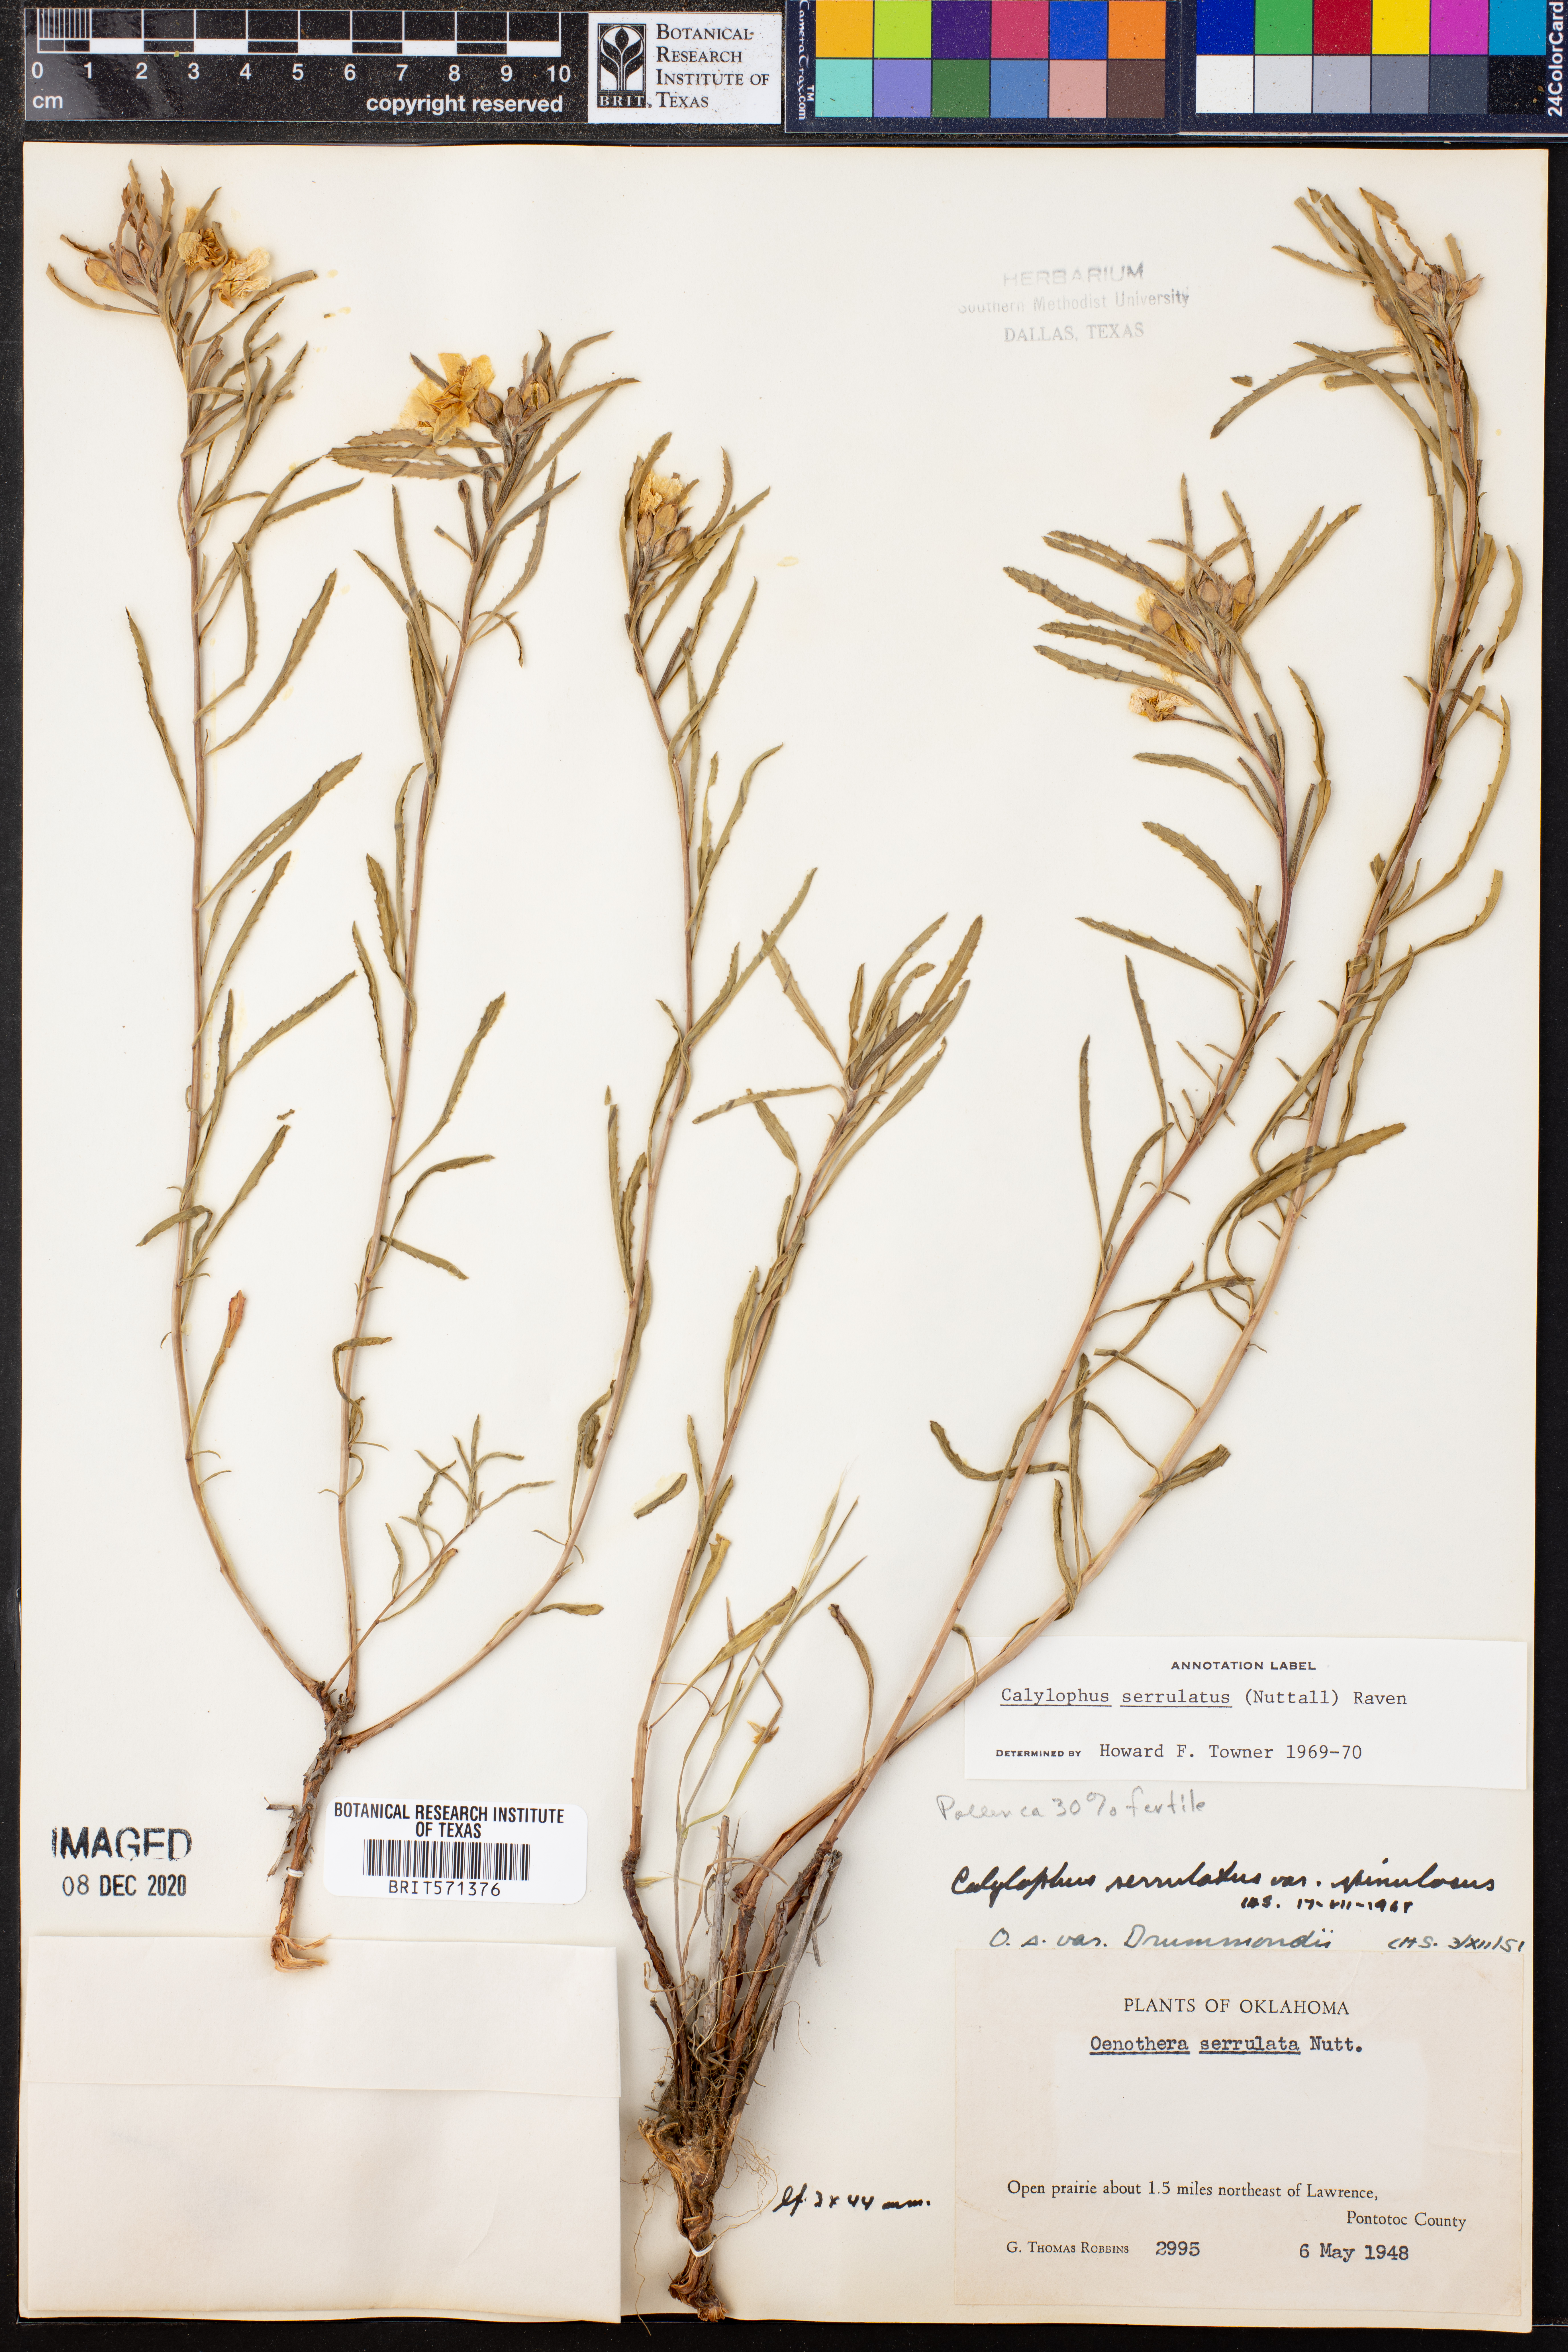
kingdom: Plantae
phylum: Tracheophyta
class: Magnoliopsida
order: Myrtales
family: Onagraceae
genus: Oenothera
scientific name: Oenothera serrulata
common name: Half-shrub calylophus
